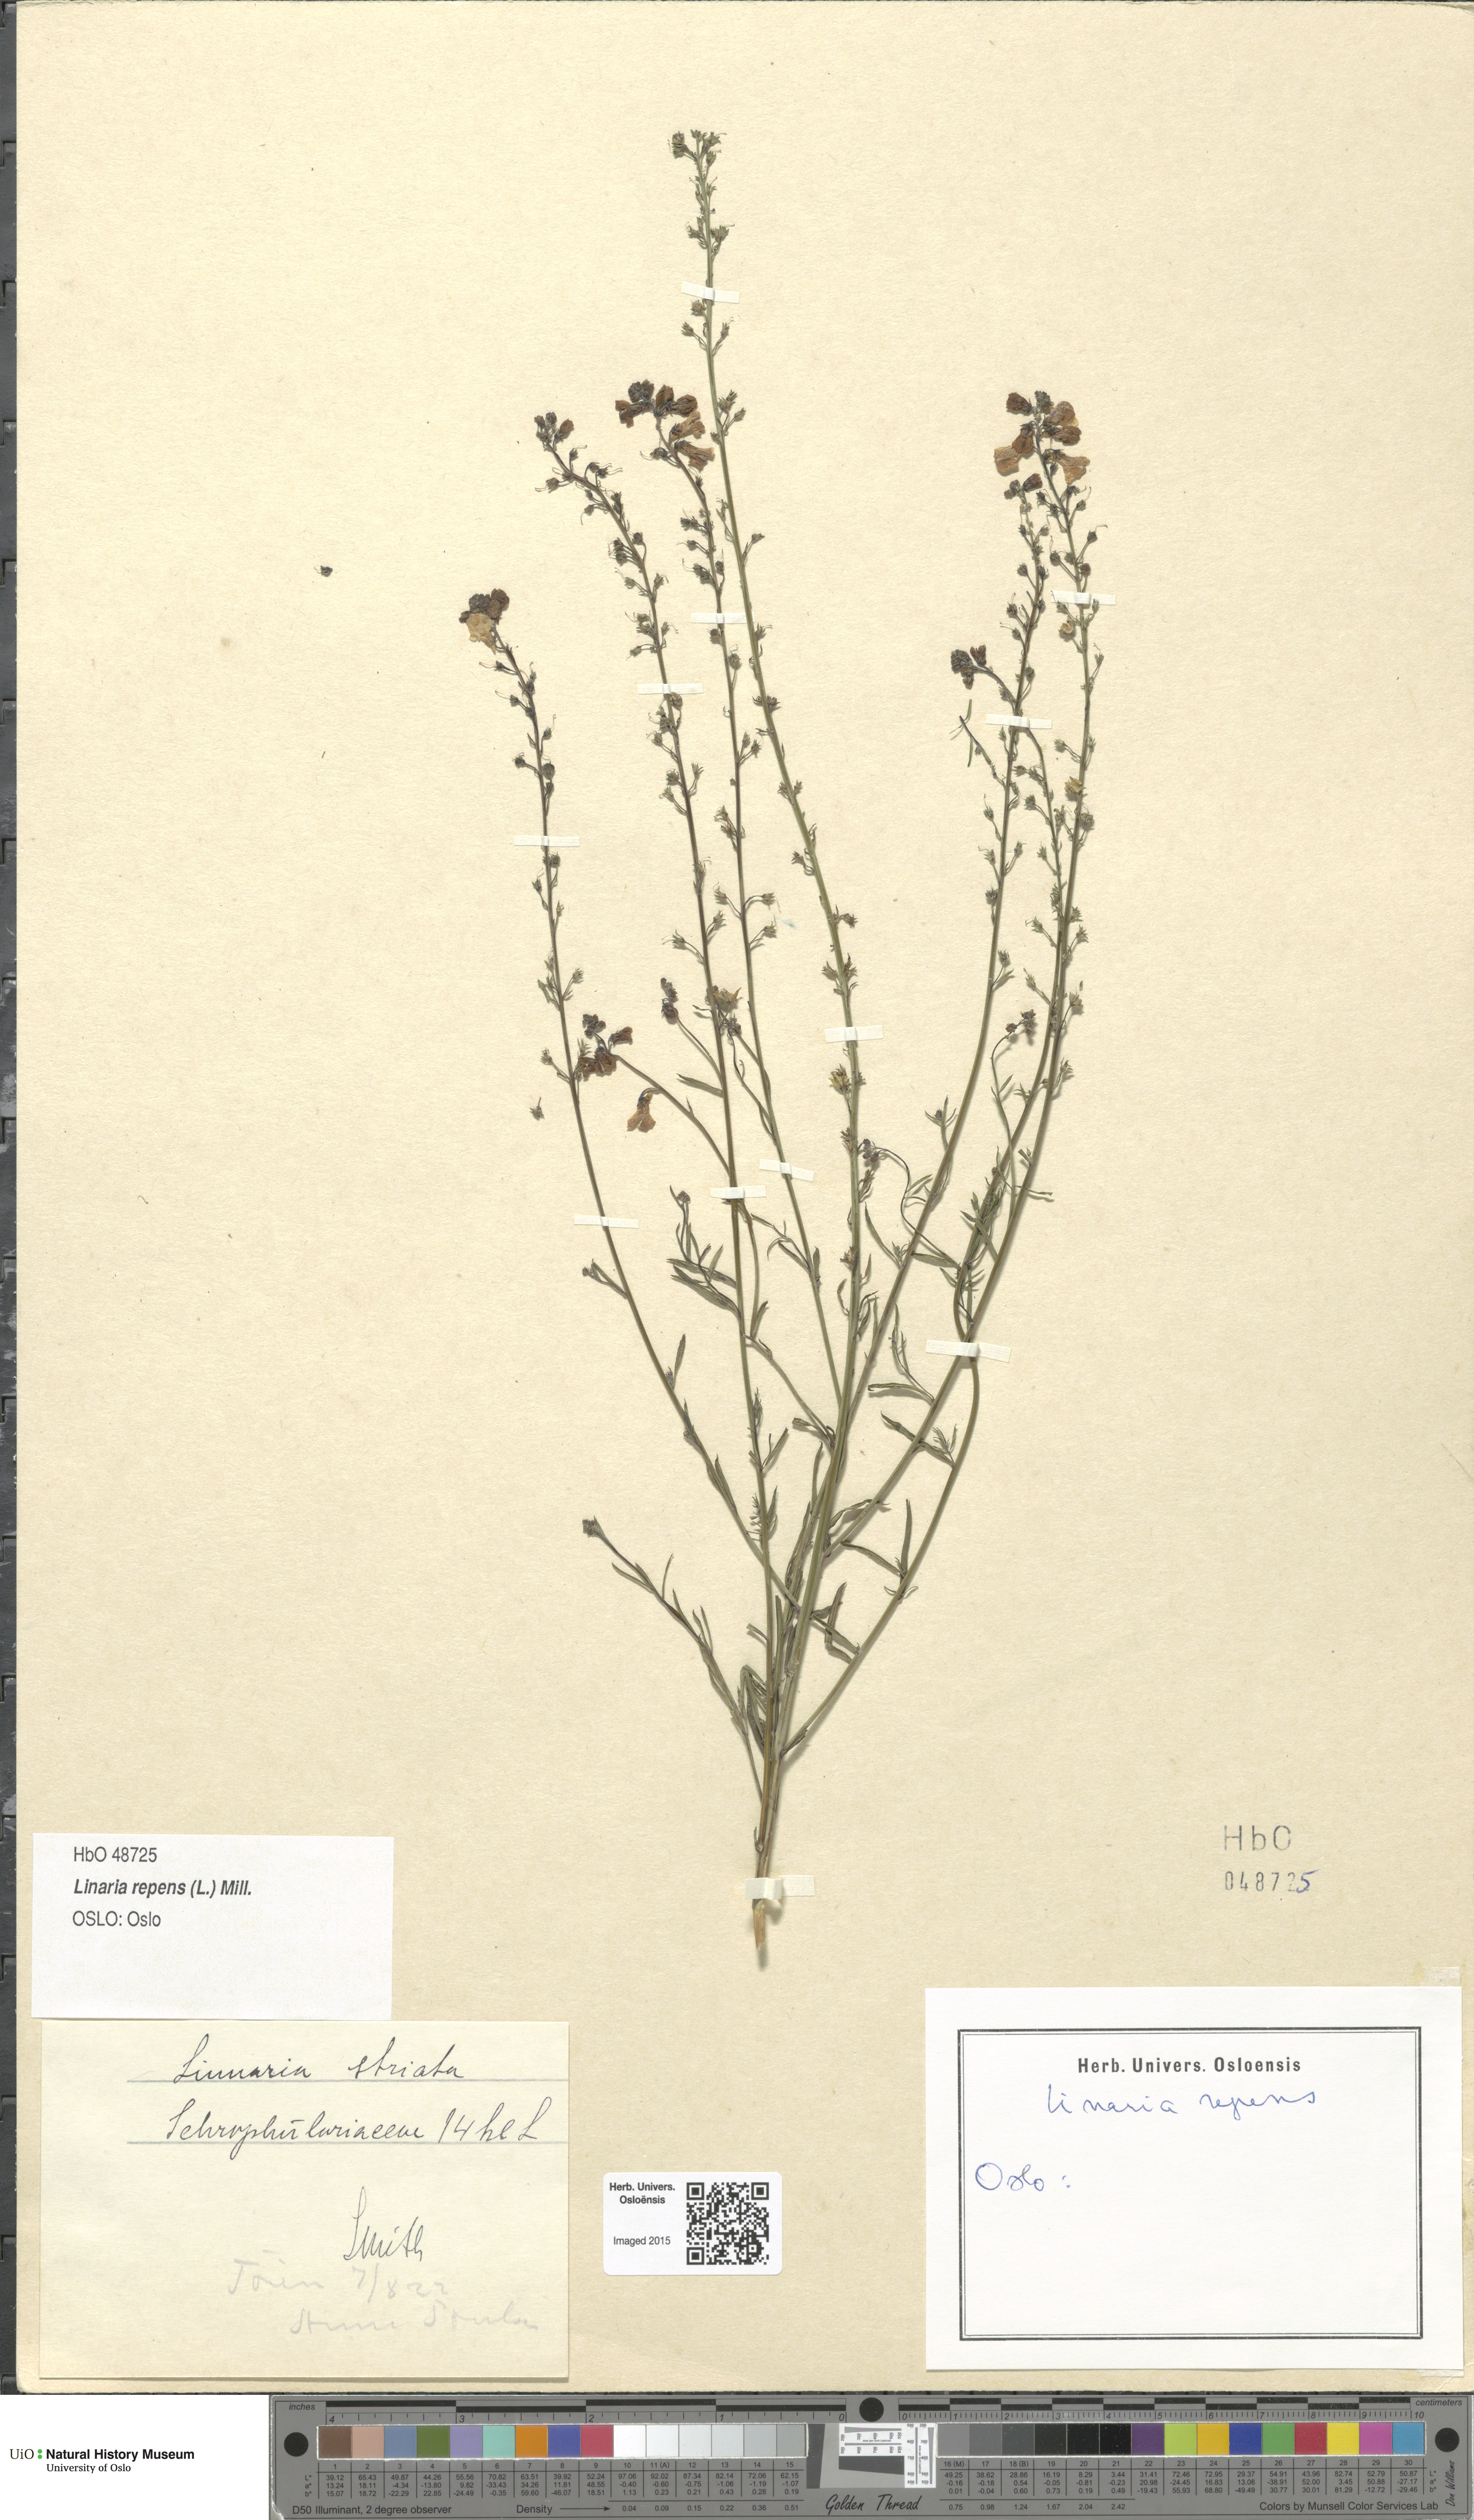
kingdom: Plantae
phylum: Tracheophyta
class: Magnoliopsida
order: Lamiales
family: Plantaginaceae
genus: Linaria
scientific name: Linaria repens
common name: Pale toadflax
